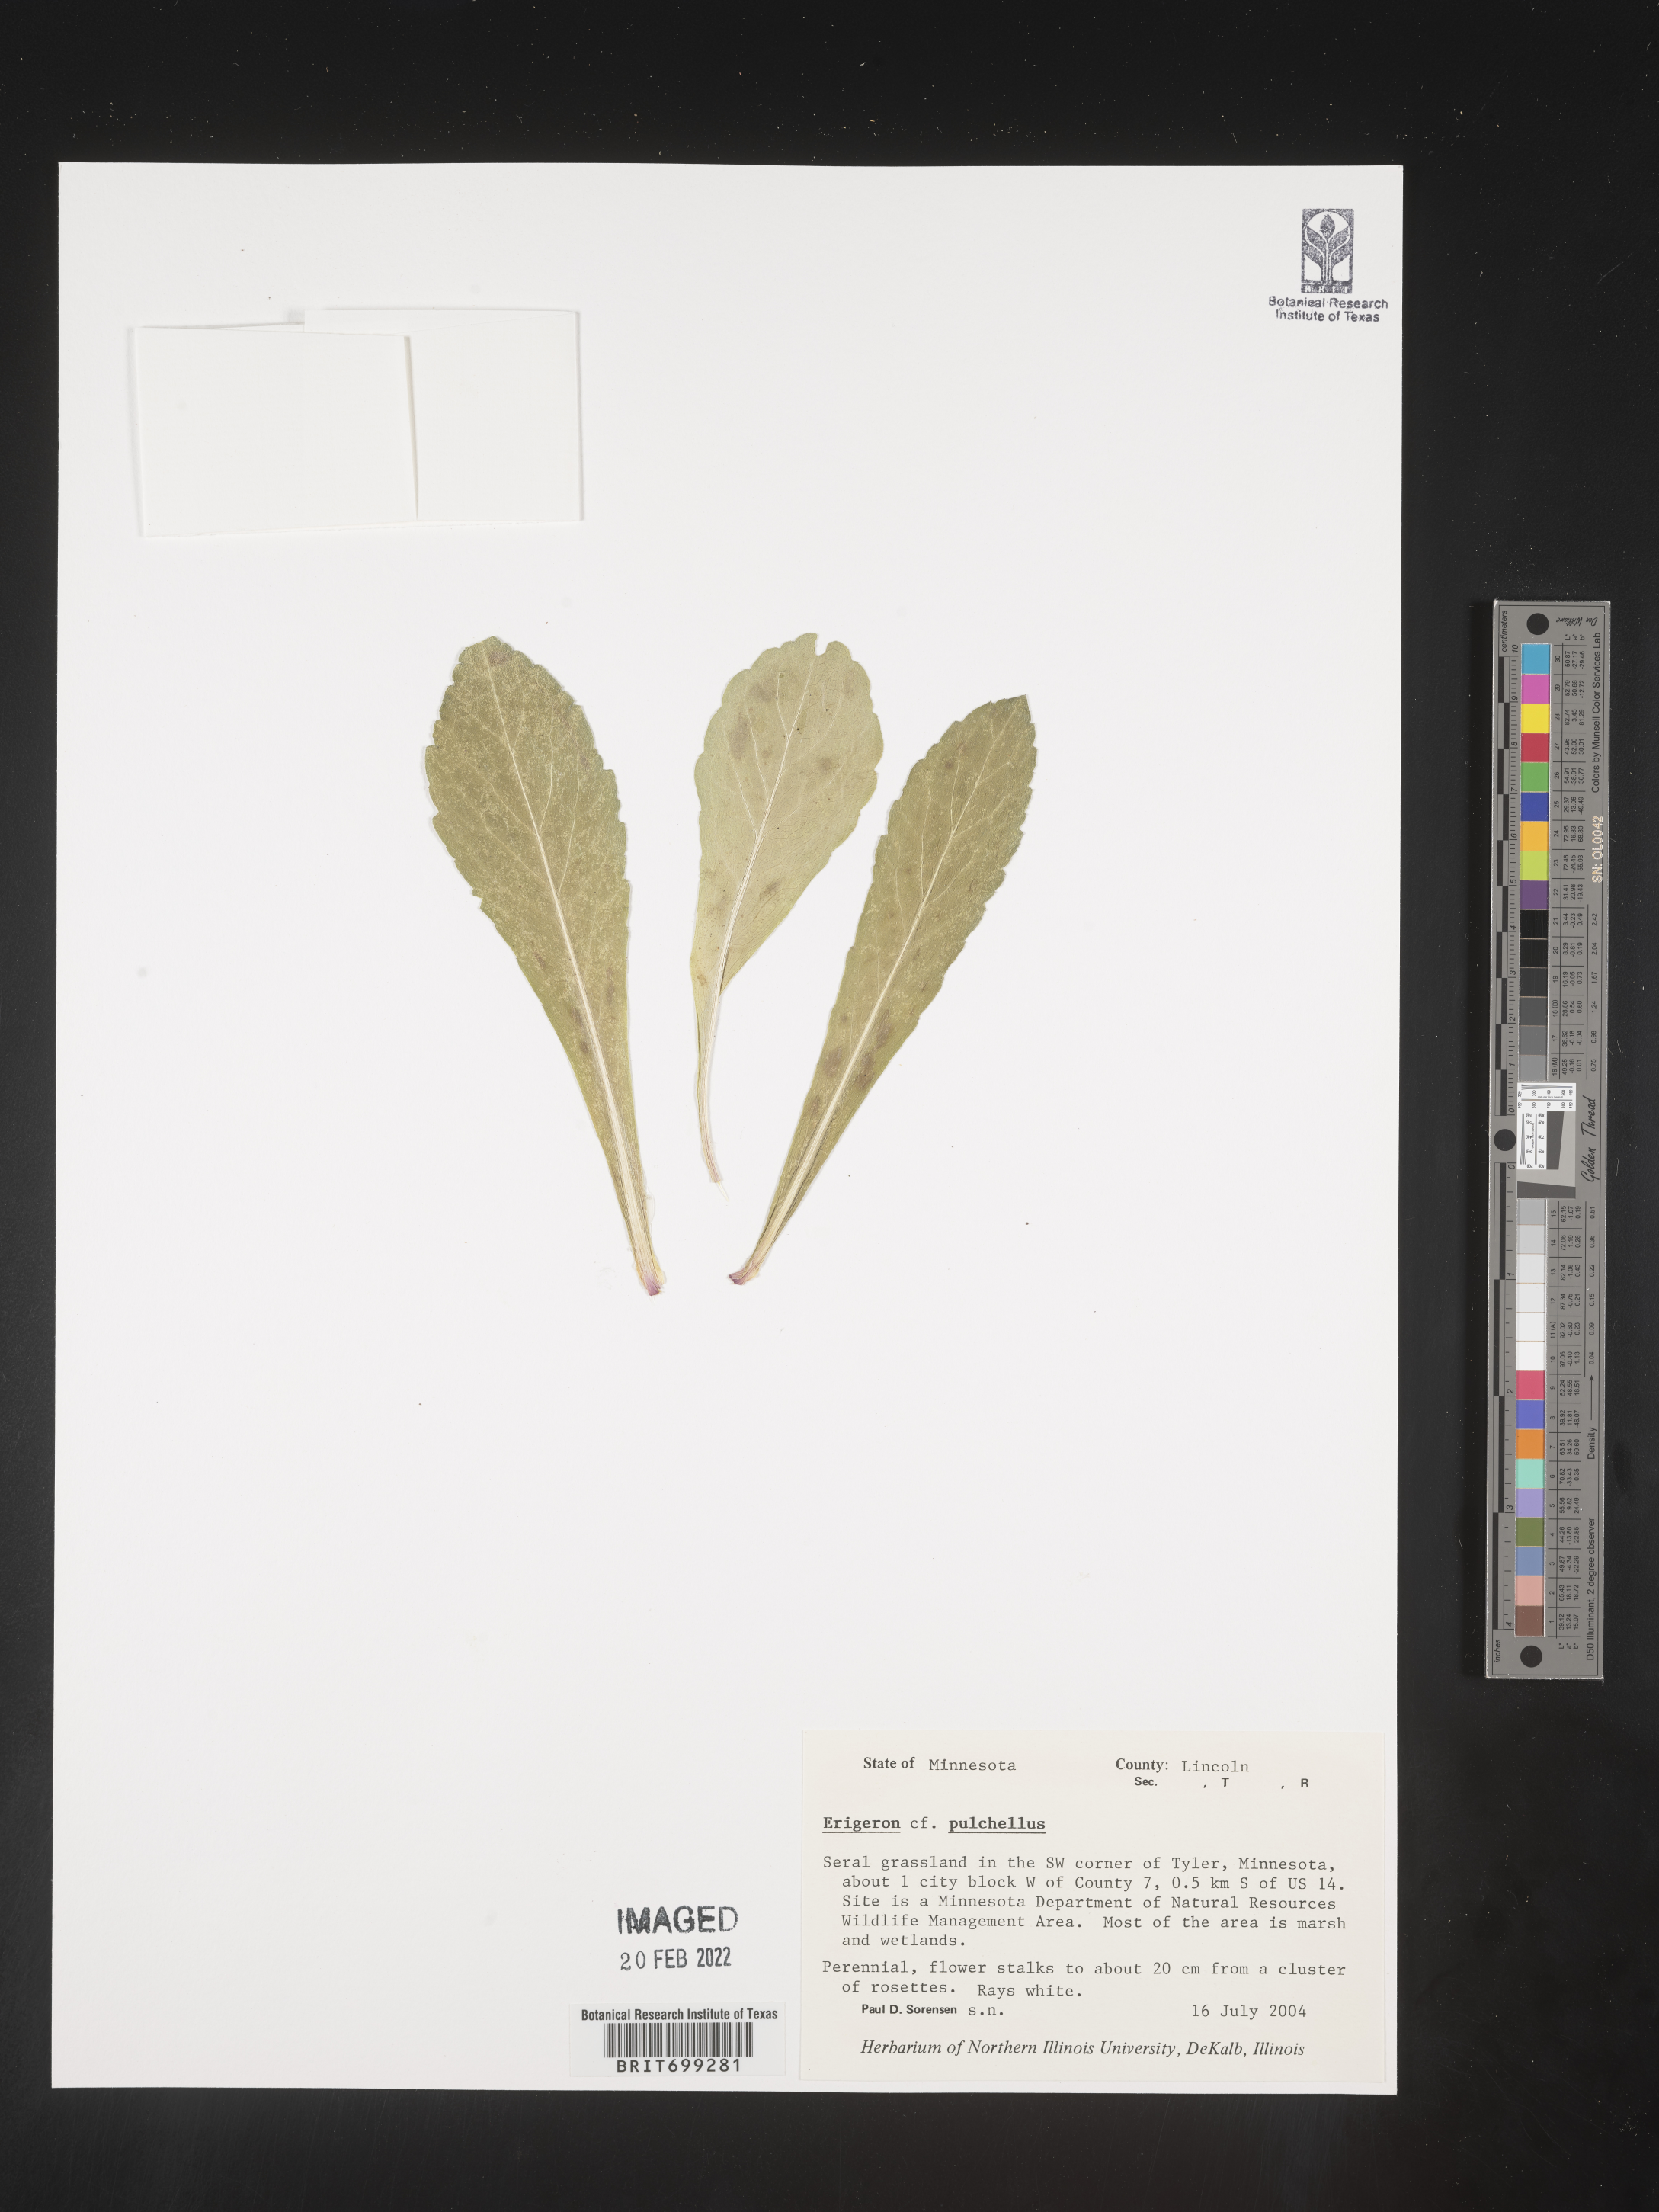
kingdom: Plantae
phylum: Tracheophyta
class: Magnoliopsida
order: Asterales
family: Asteraceae
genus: Erigeron
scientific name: Erigeron pulchellus
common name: Hairy fleabane
